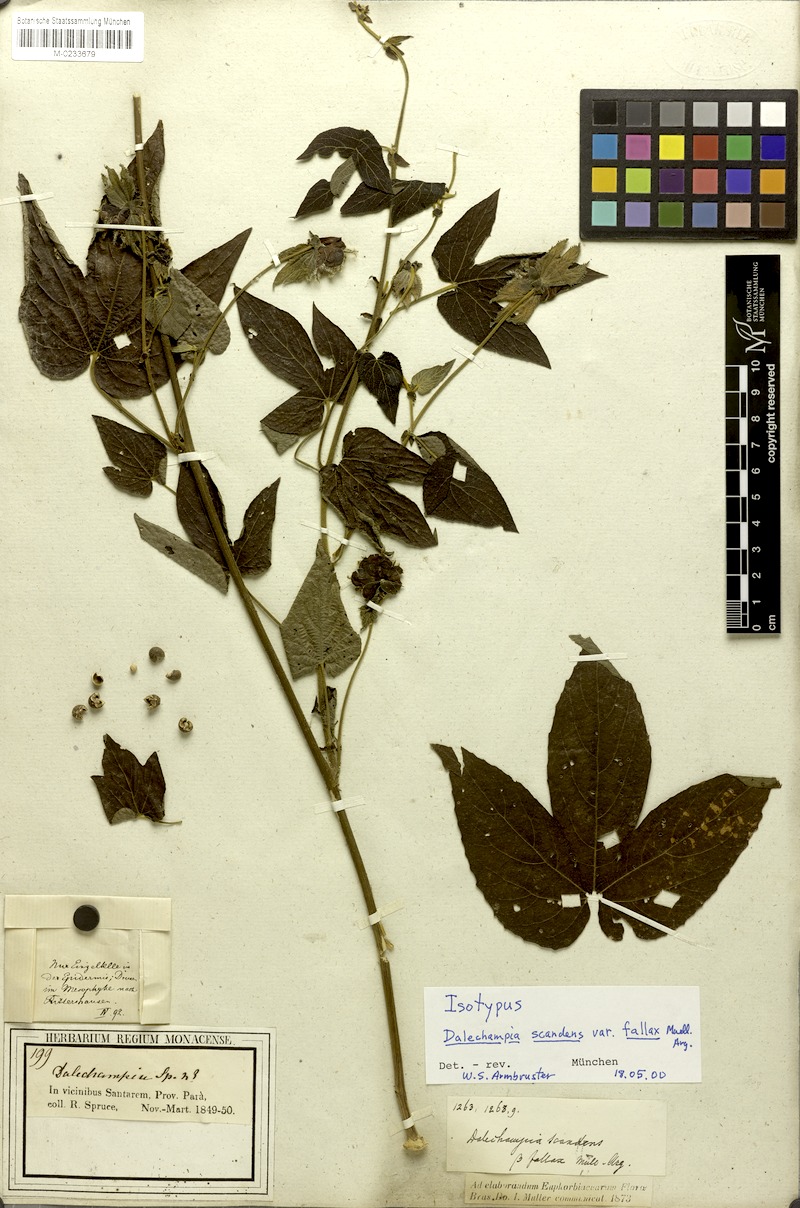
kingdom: Plantae
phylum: Tracheophyta
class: Magnoliopsida
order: Malpighiales
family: Euphorbiaceae
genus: Dalechampia
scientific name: Dalechampia scandens
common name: Spurgecreeper
